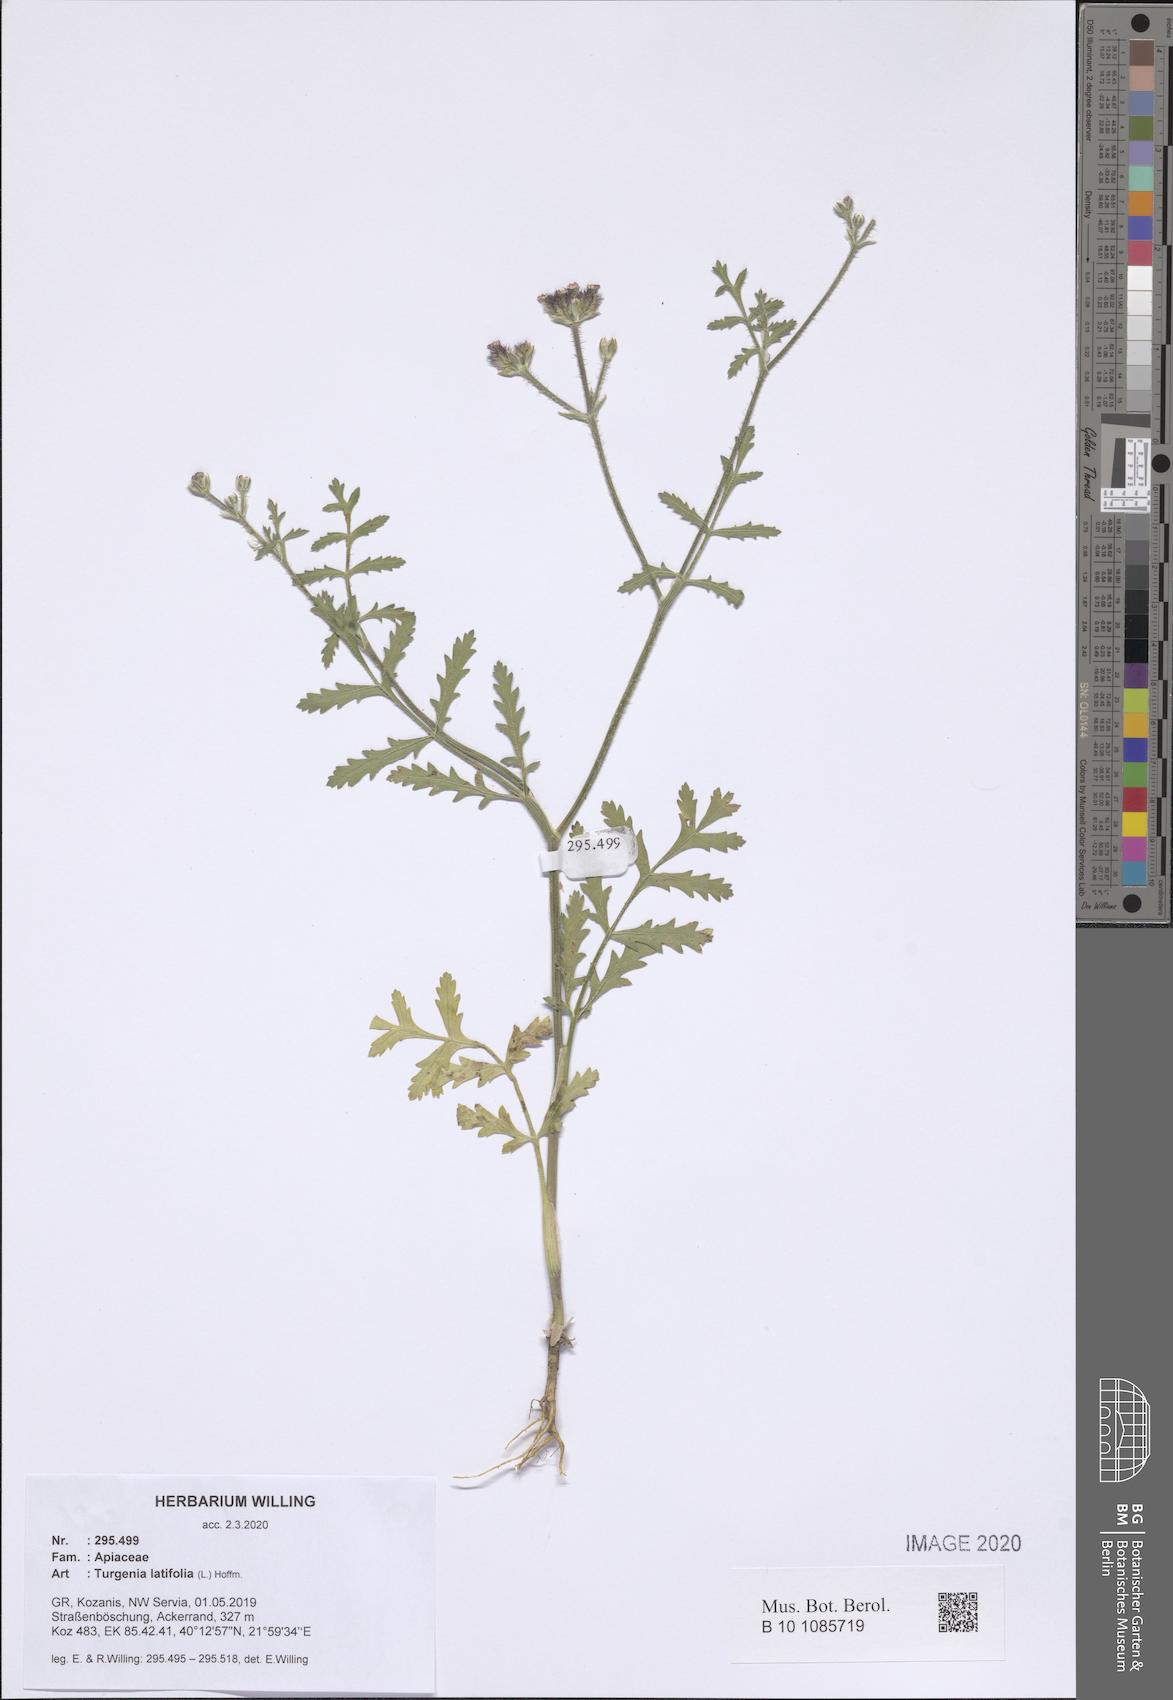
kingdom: Plantae
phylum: Tracheophyta
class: Magnoliopsida
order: Apiales
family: Apiaceae
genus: Turgenia
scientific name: Turgenia latifolia
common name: Greater bur-parsley
